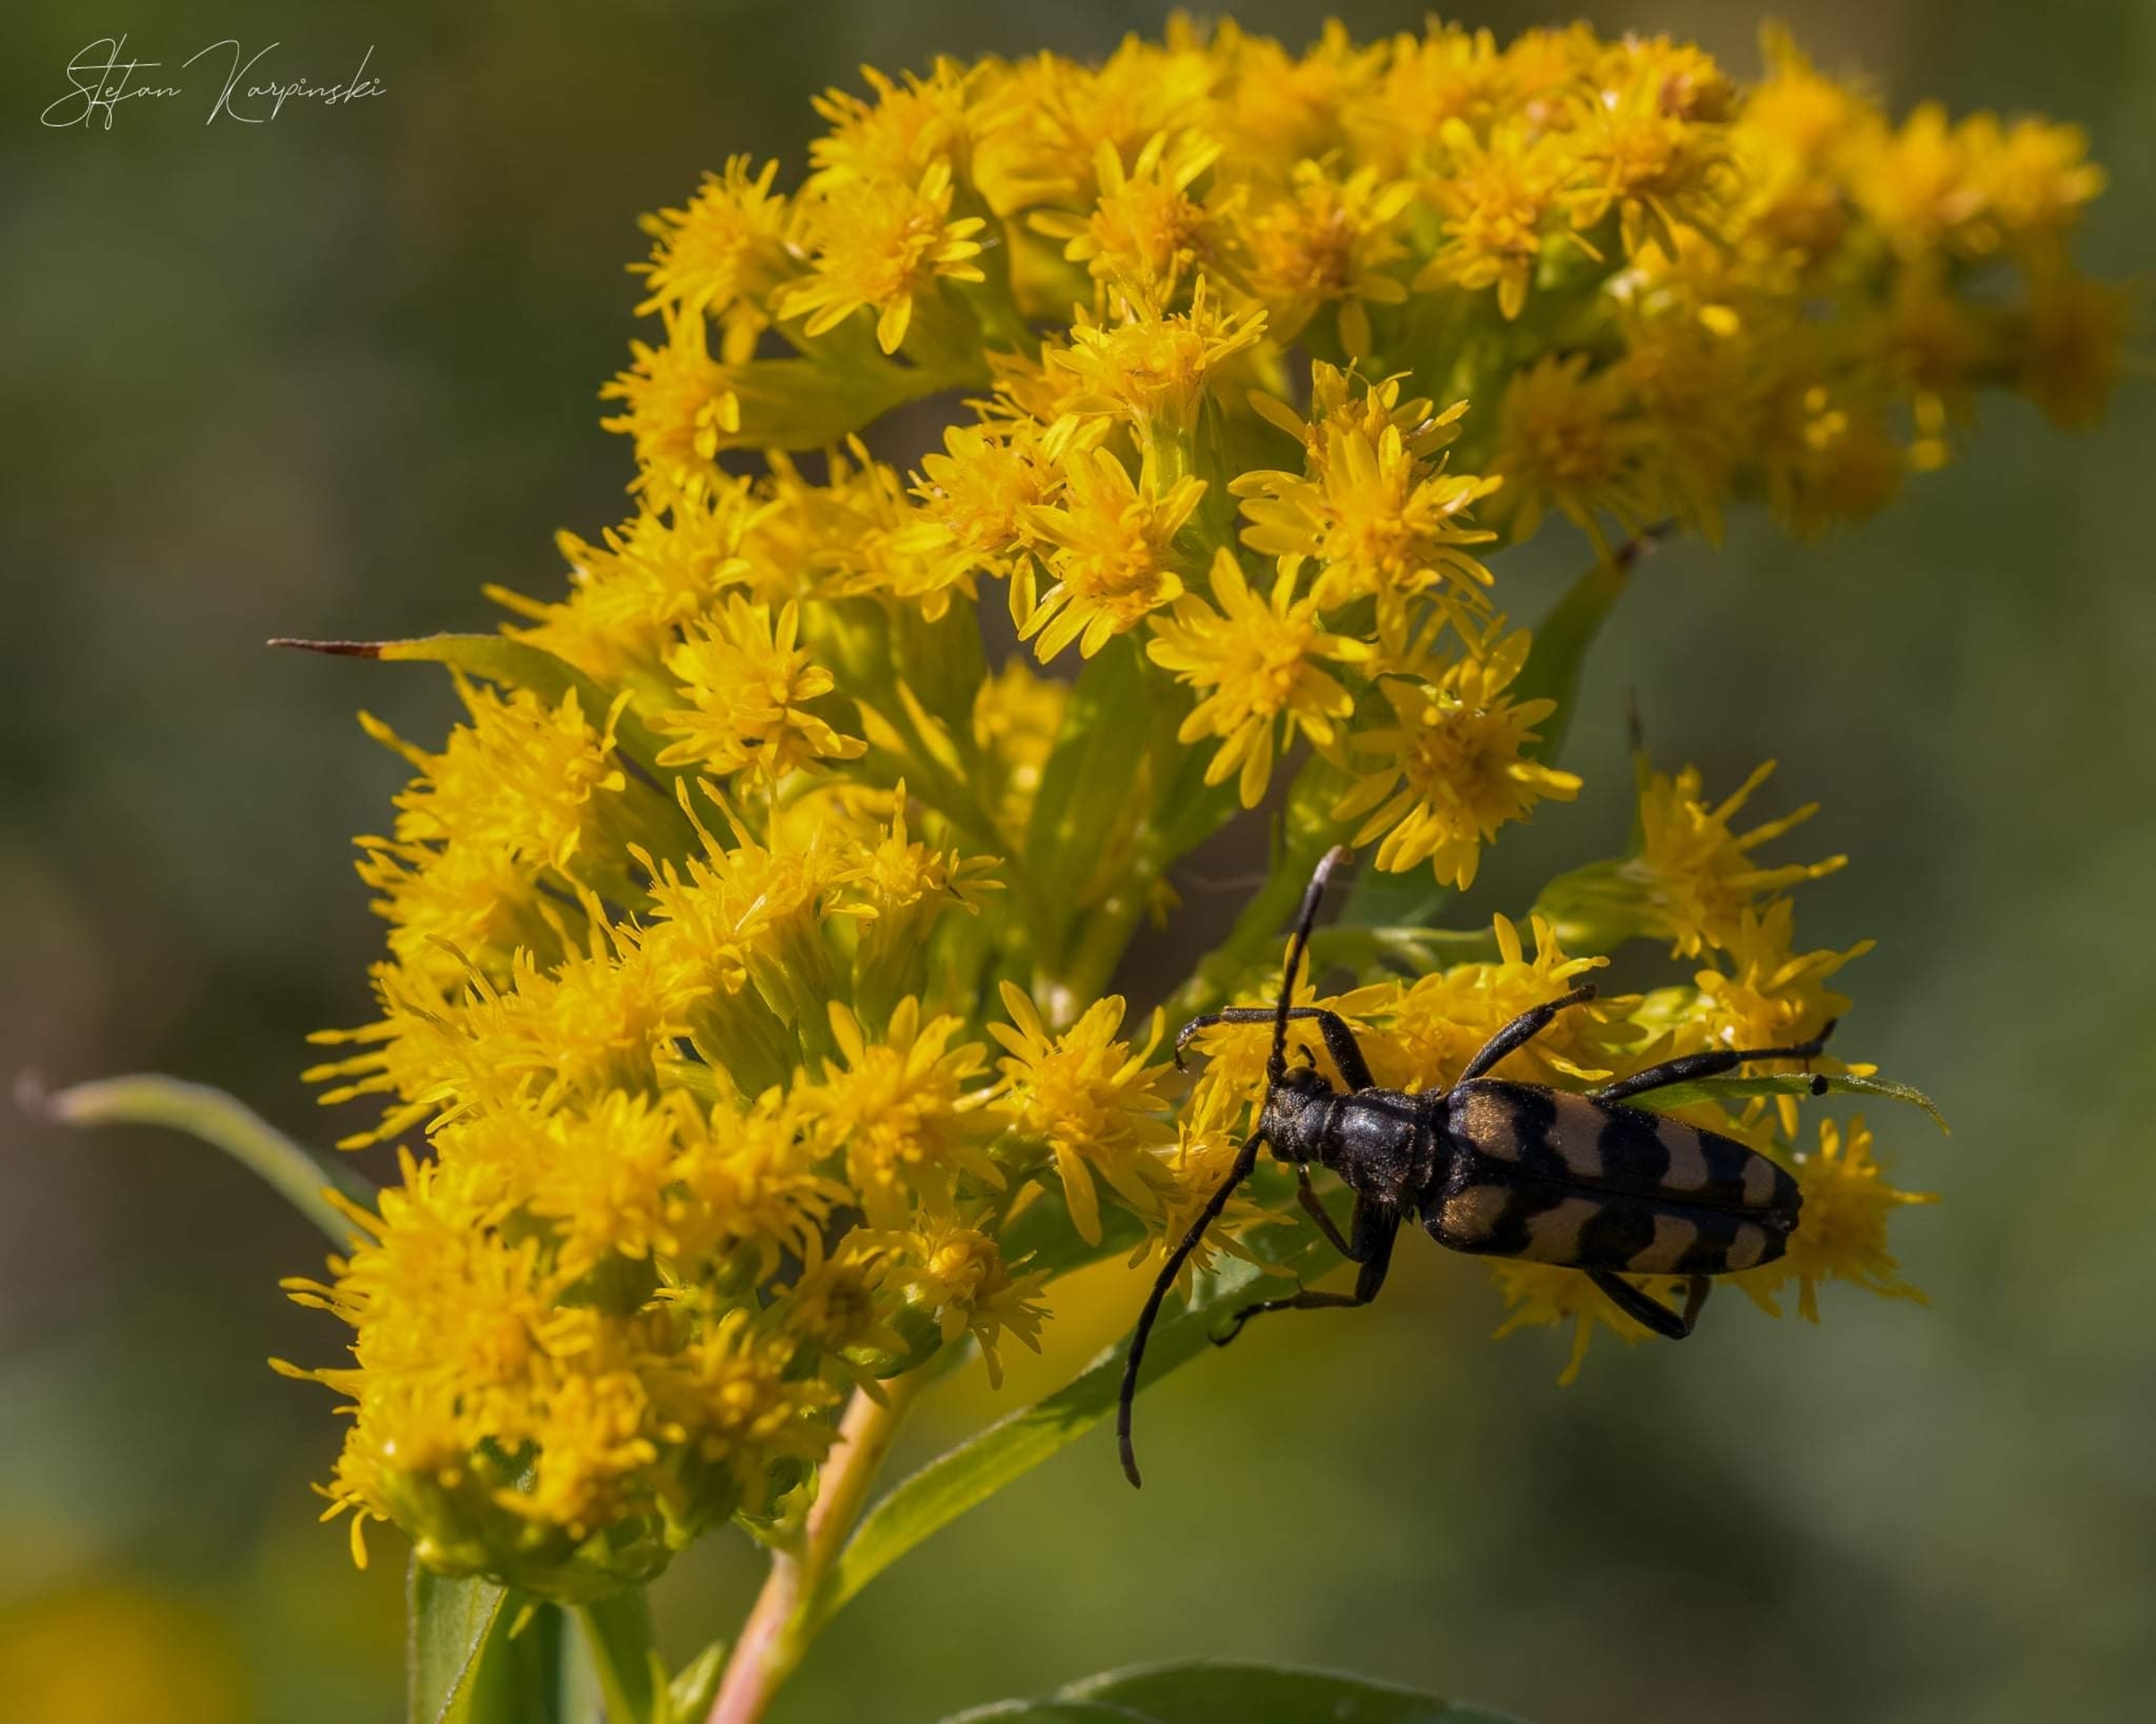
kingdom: Animalia
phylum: Arthropoda
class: Insecta
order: Coleoptera
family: Cerambycidae
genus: Leptura
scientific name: Leptura quadrifasciata
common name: Firebåndet blomsterbuk
